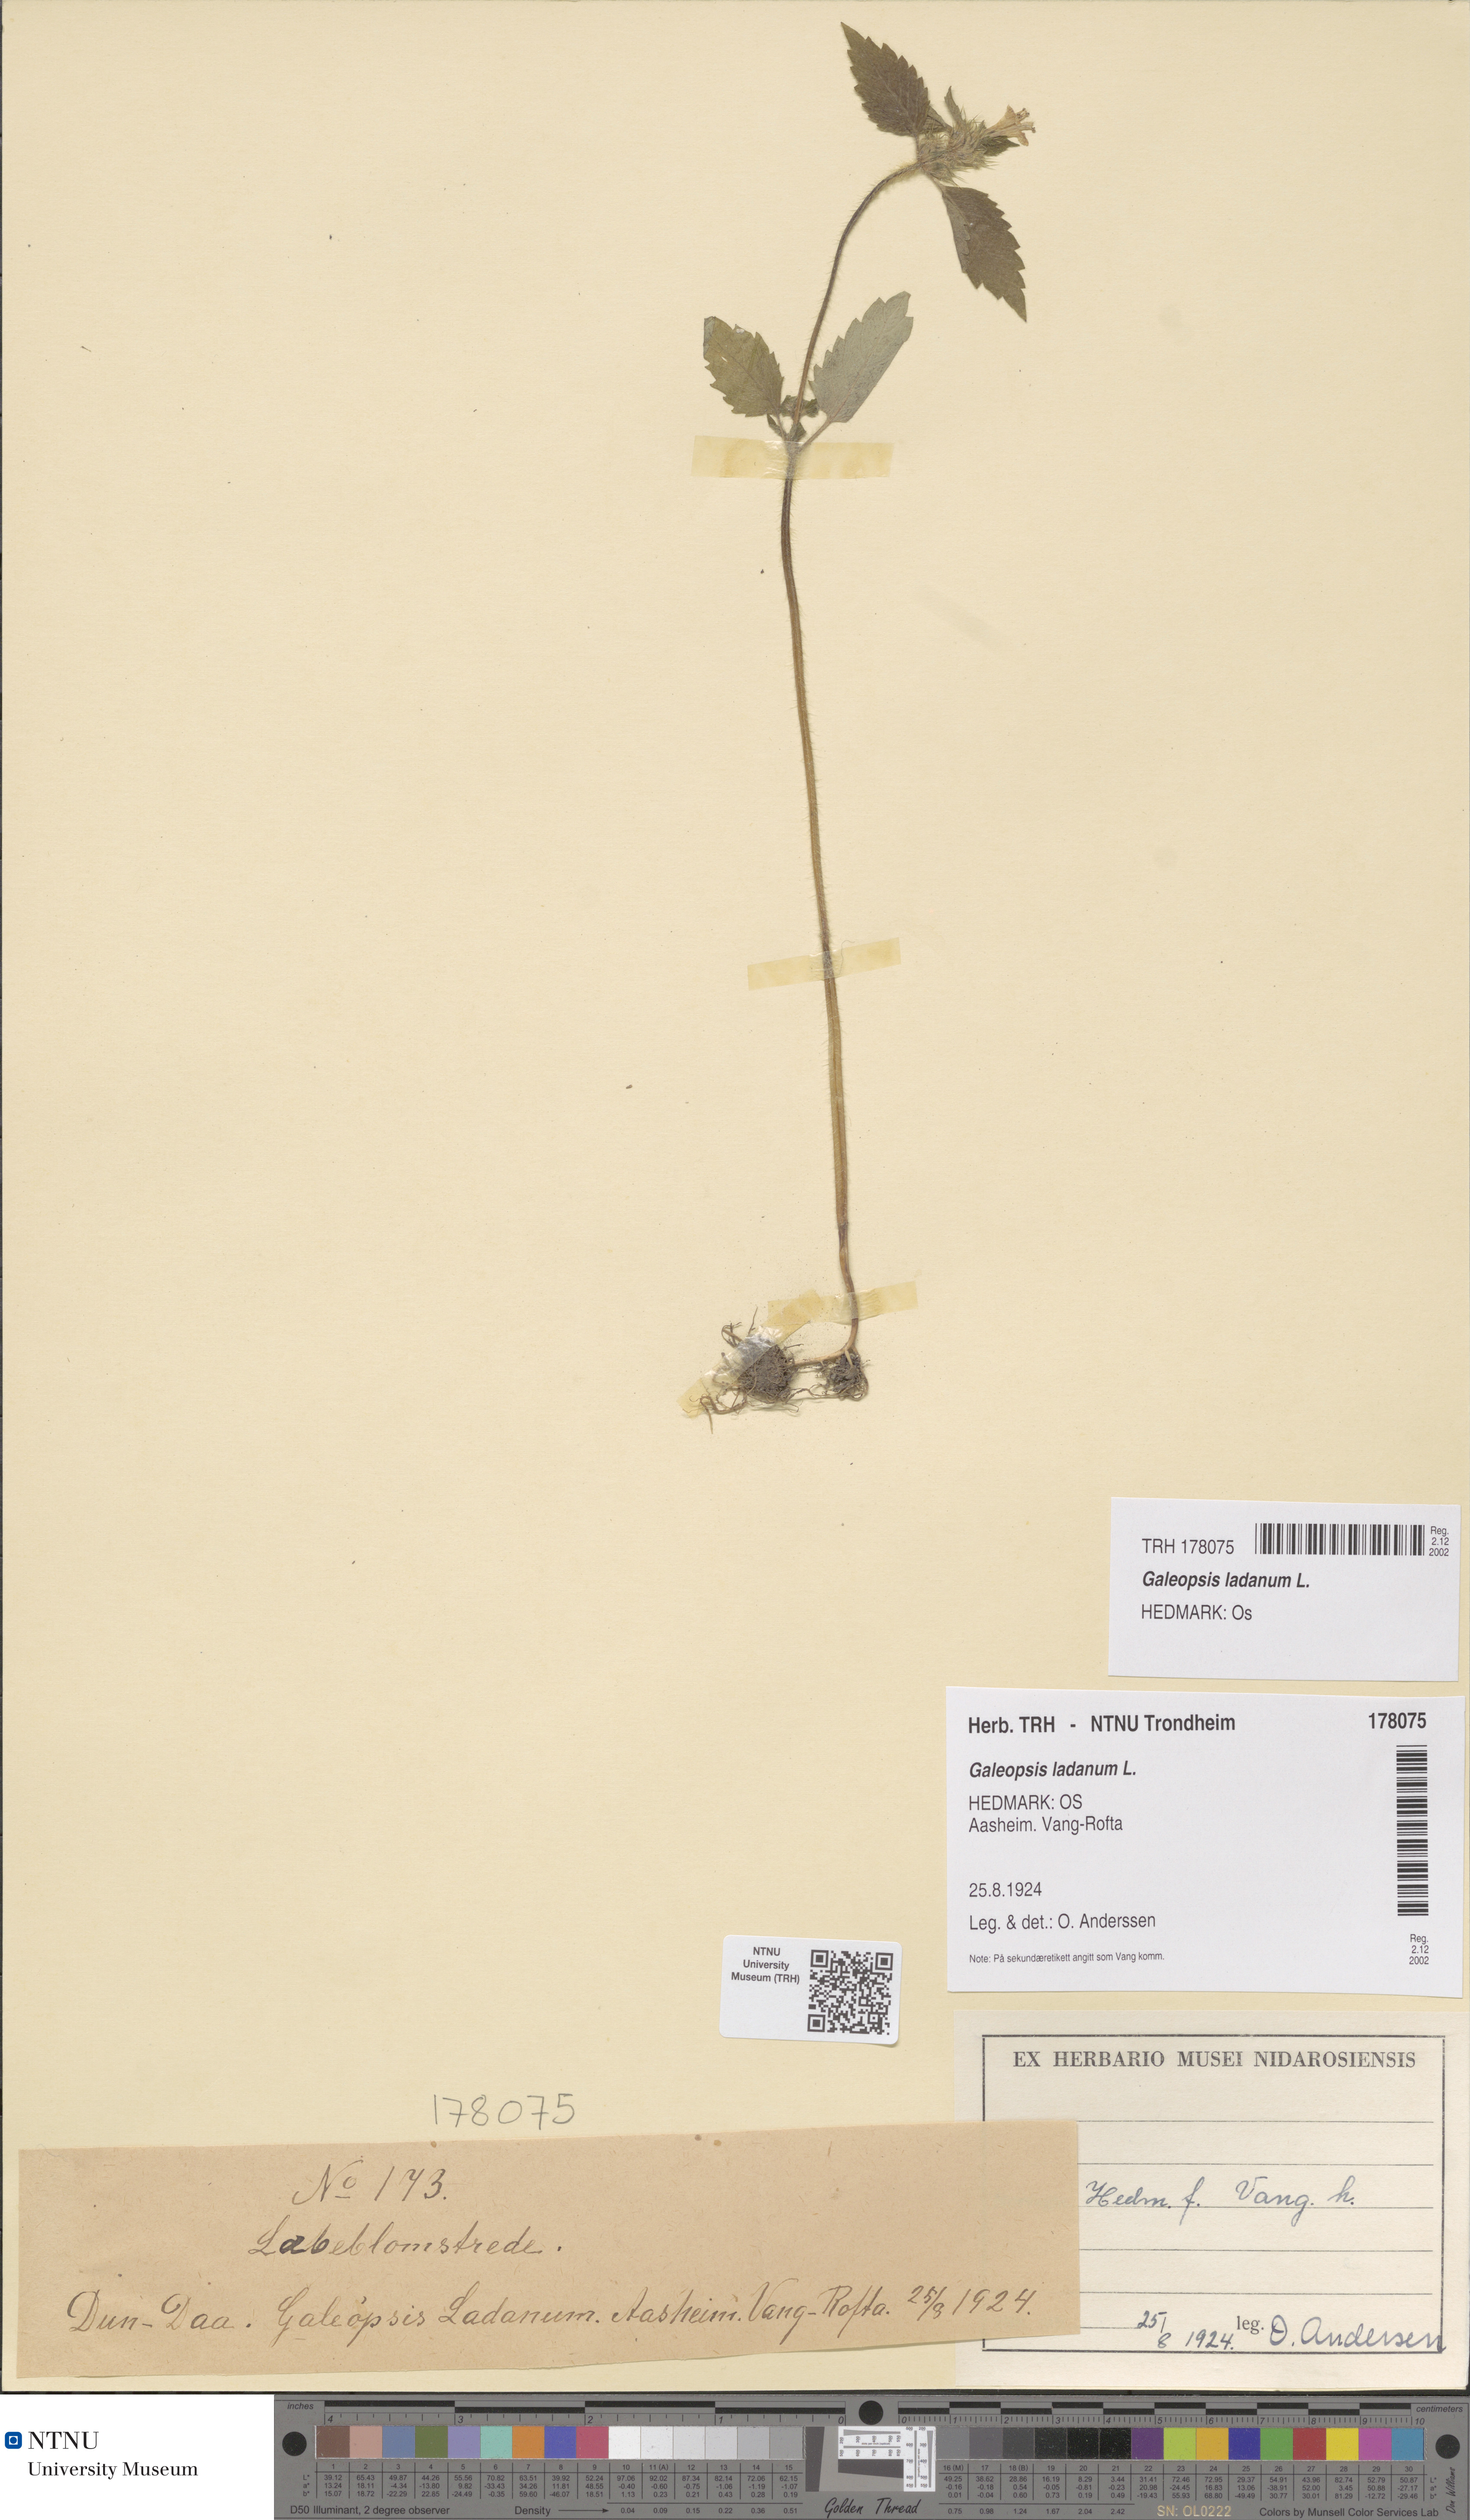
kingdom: Plantae
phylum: Tracheophyta
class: Magnoliopsida
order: Lamiales
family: Lamiaceae
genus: Galeopsis
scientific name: Galeopsis bifida
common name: Bifid hemp-nettle
